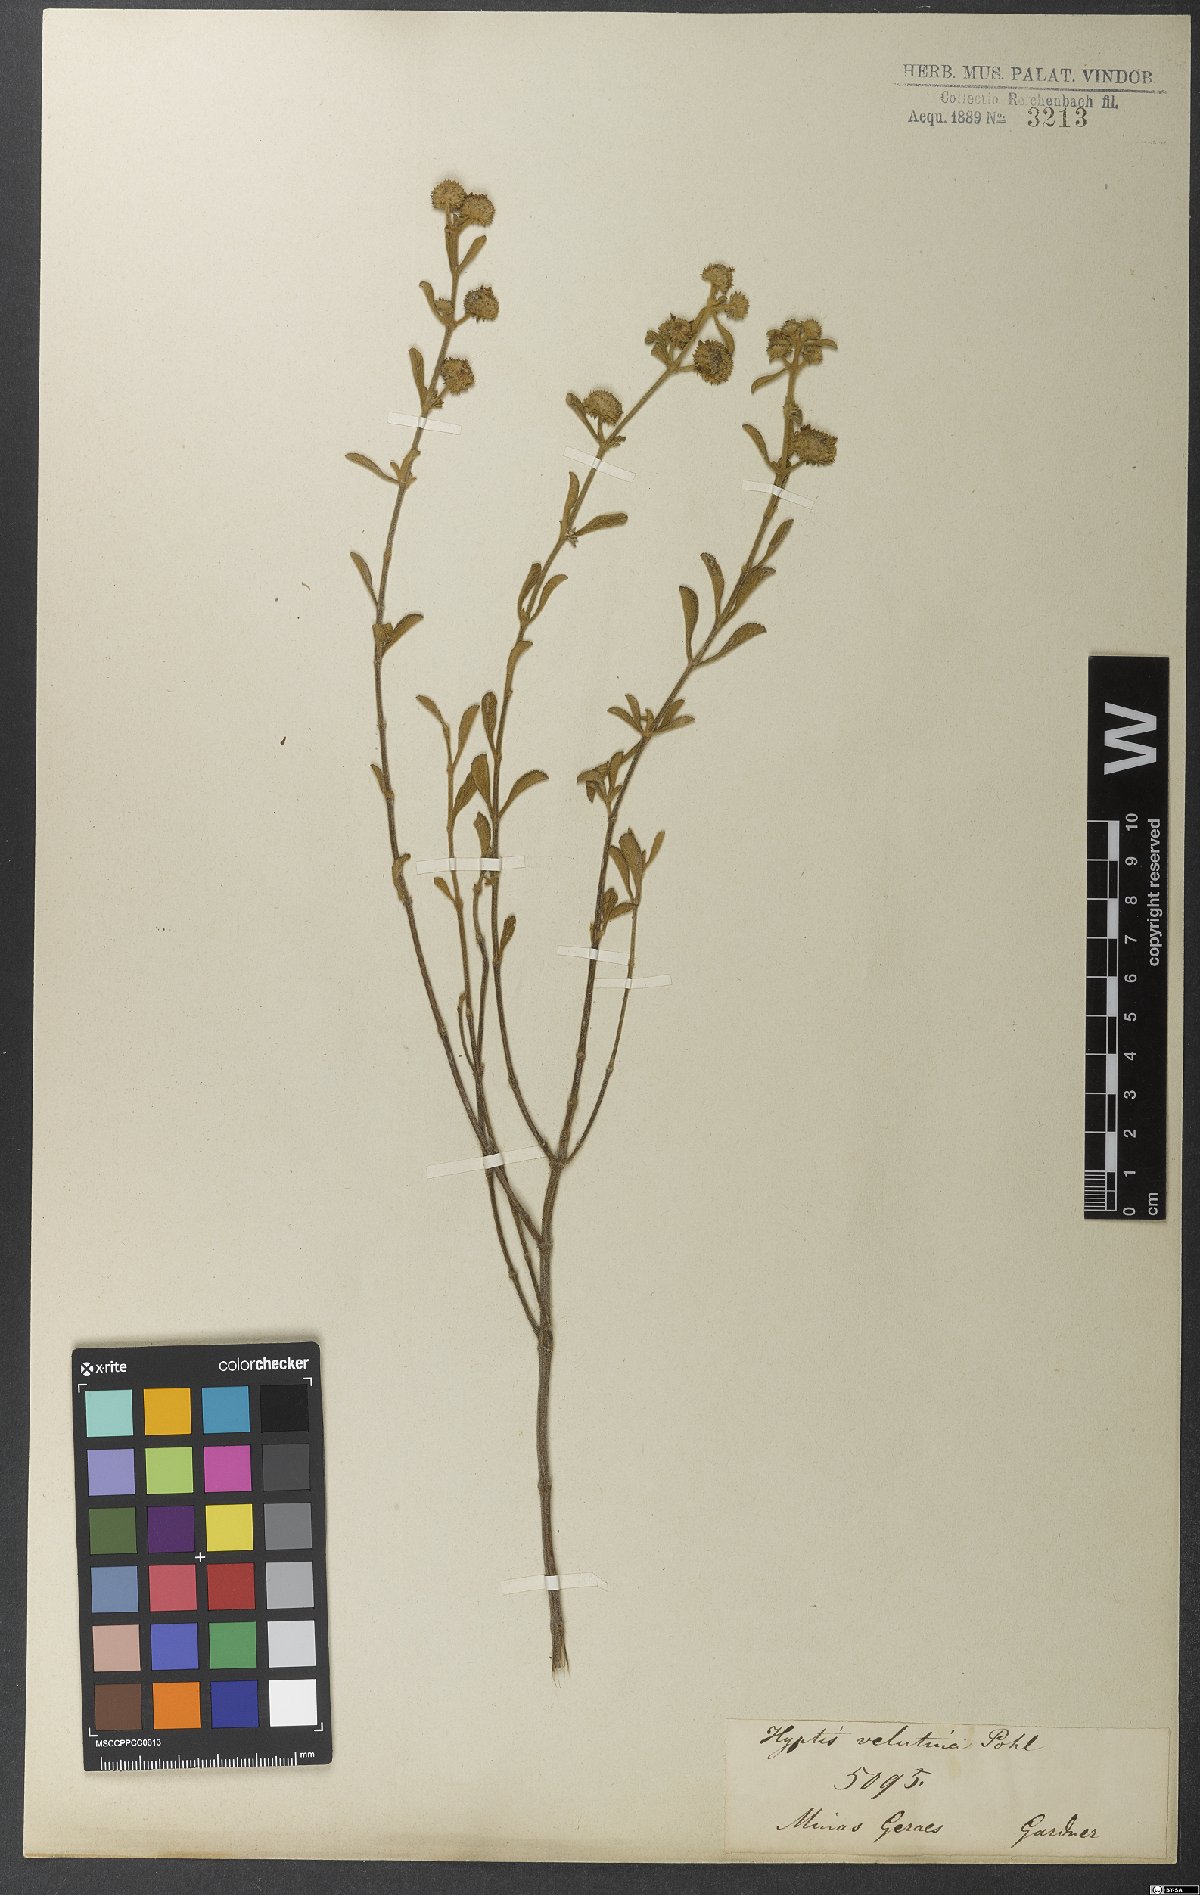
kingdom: Plantae
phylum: Tracheophyta
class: Magnoliopsida
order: Lamiales
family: Lamiaceae
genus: Hyptis
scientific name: Hyptis velutina
